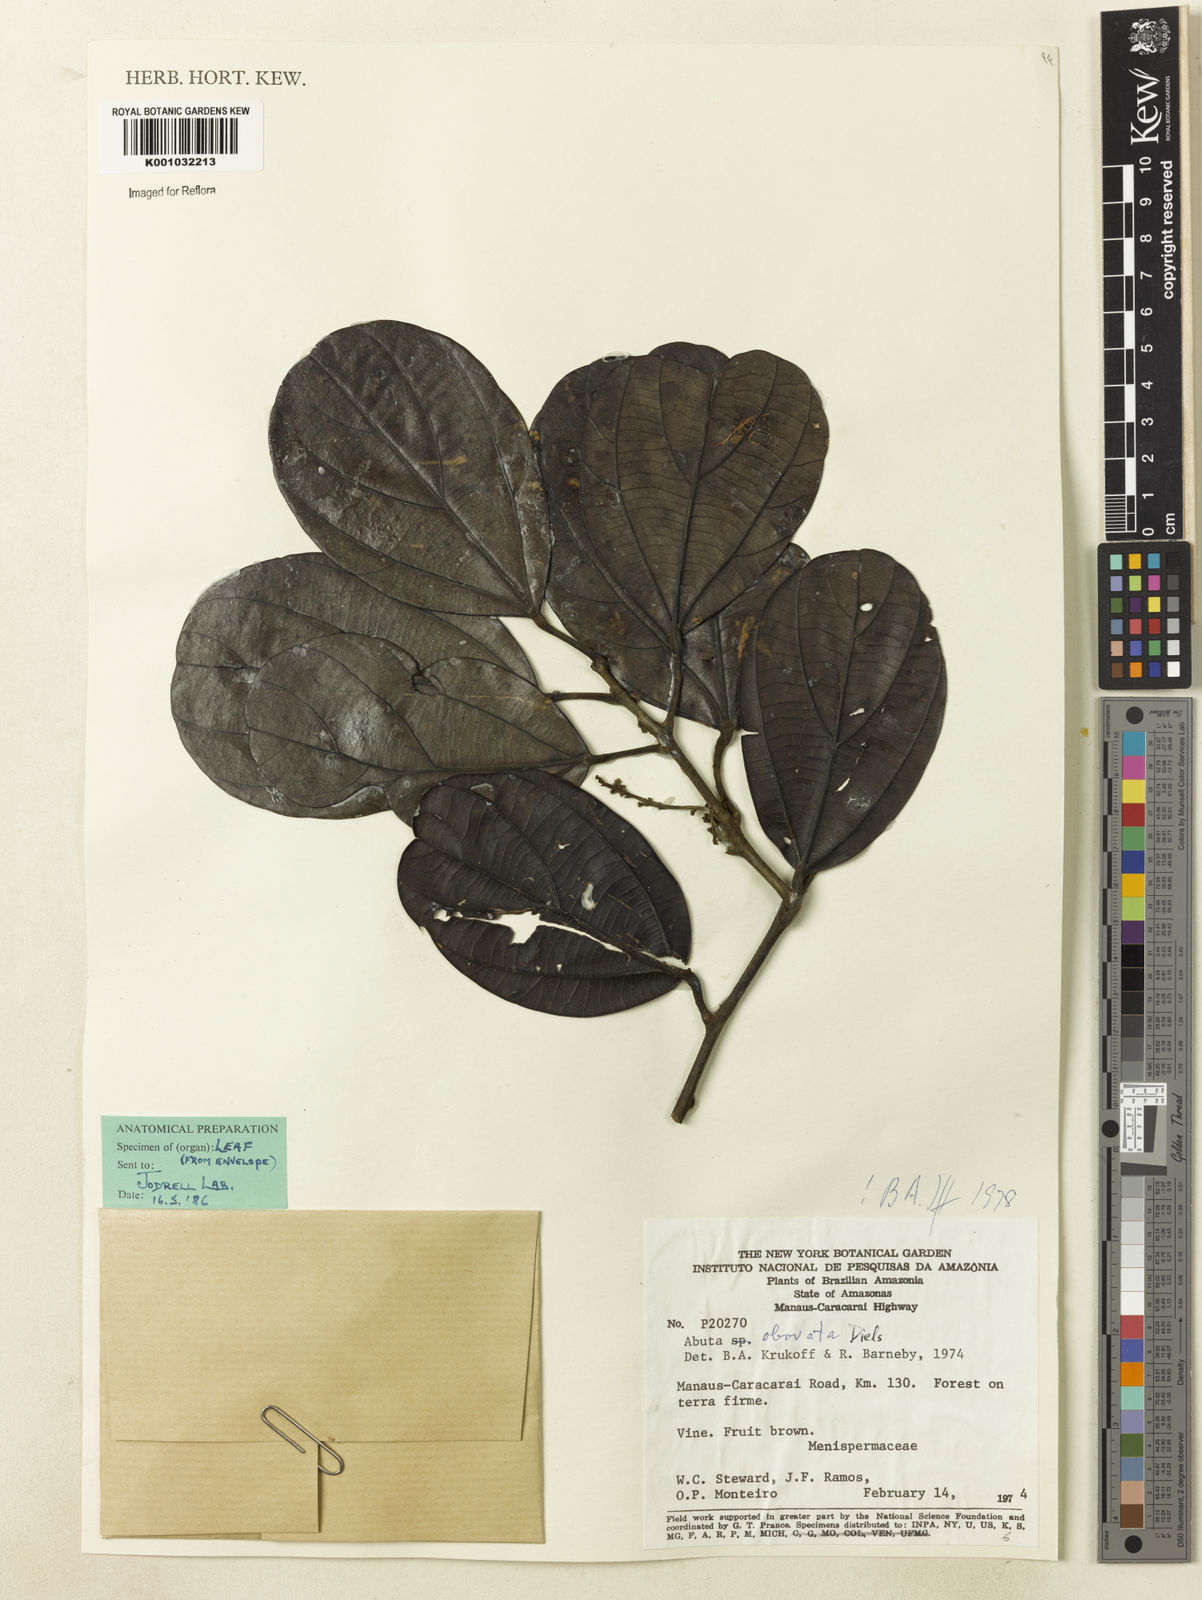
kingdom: Plantae
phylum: Tracheophyta
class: Magnoliopsida
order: Ranunculales
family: Menispermaceae
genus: Abuta
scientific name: Abuta obovata
